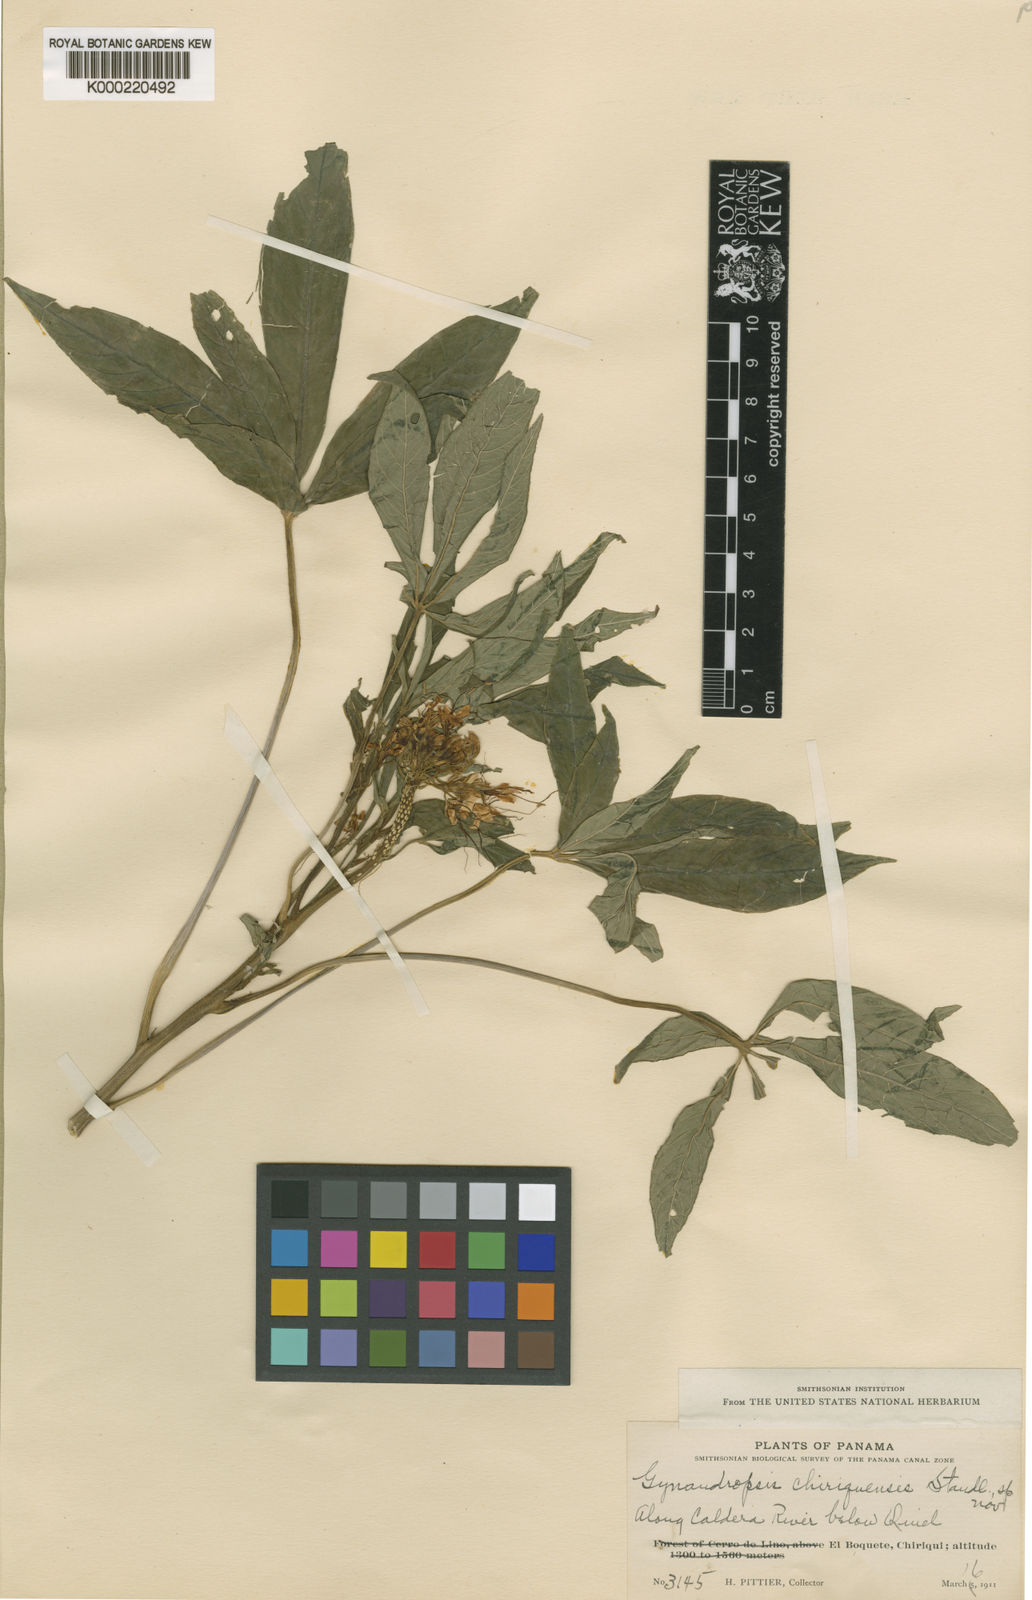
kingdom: Plantae
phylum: Tracheophyta
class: Magnoliopsida
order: Brassicales
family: Cleomaceae
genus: Podandrogyne
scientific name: Podandrogyne chiriquensis
